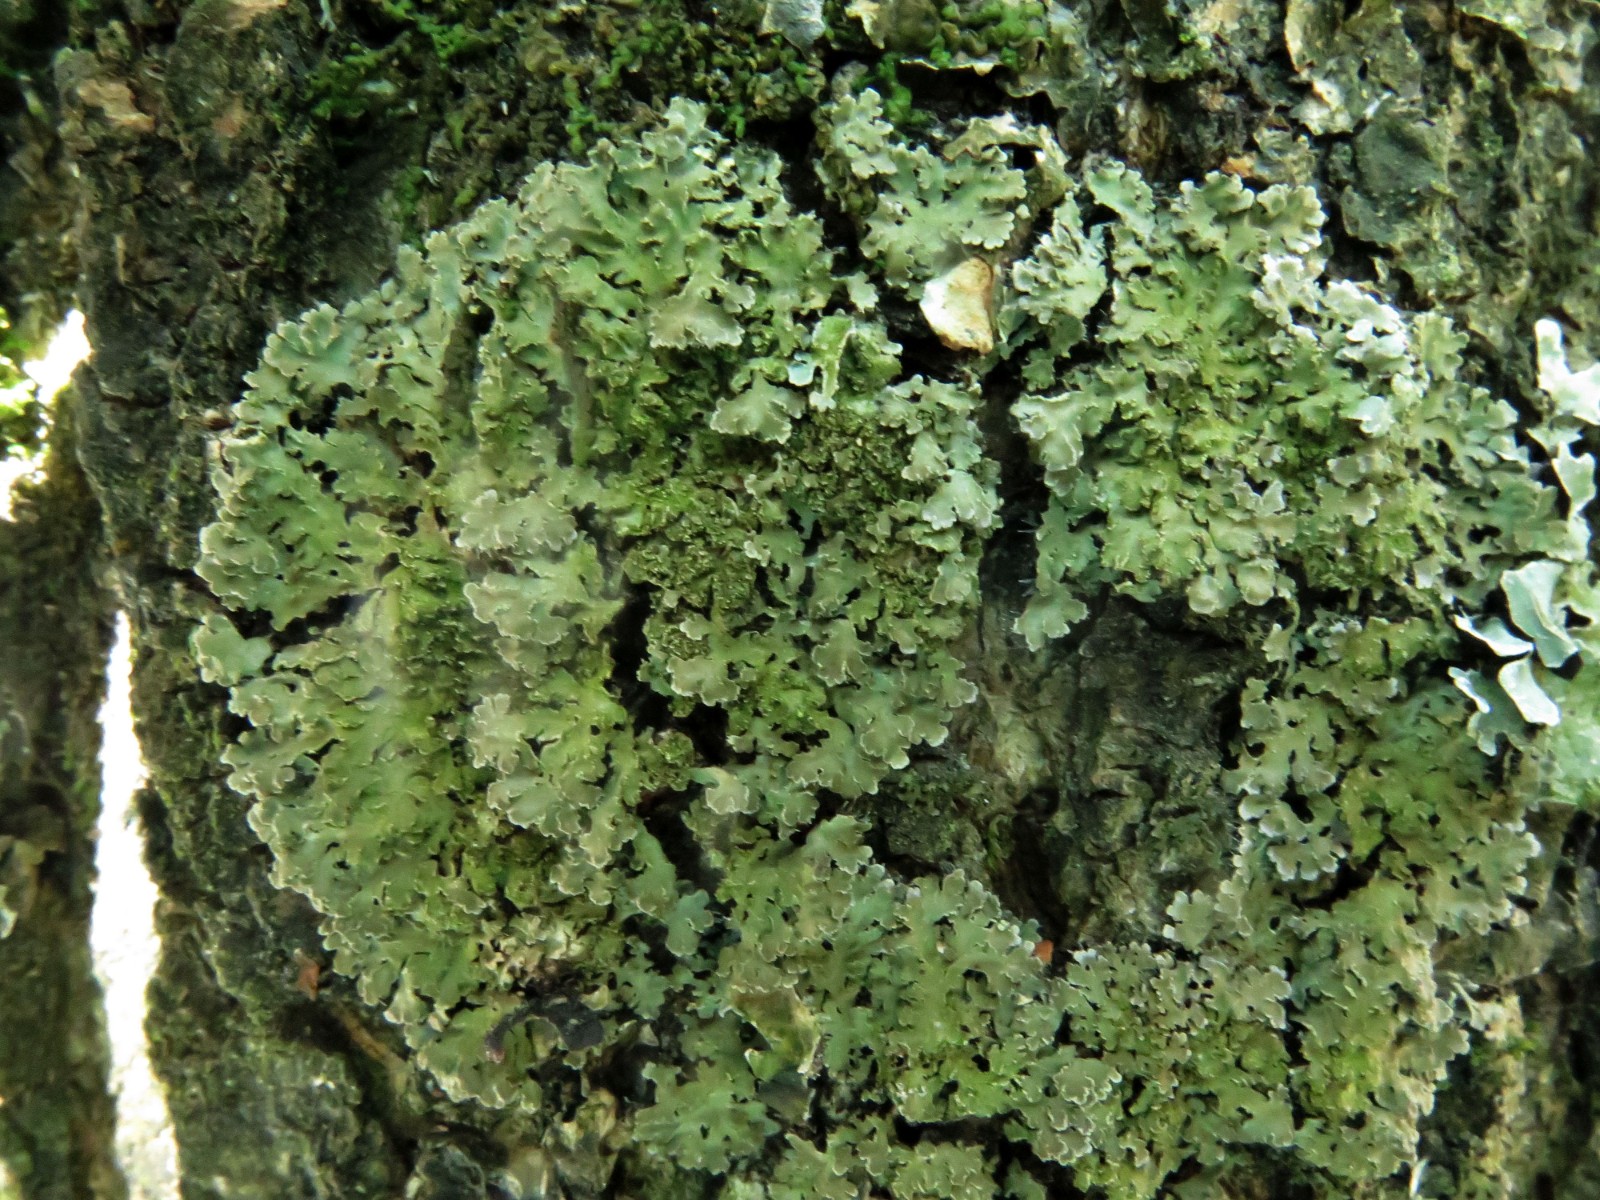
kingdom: Fungi
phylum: Ascomycota
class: Lecanoromycetes
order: Caliciales
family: Physciaceae
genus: Physconia
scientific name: Physconia enteroxantha
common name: grynet dugrosetlav
